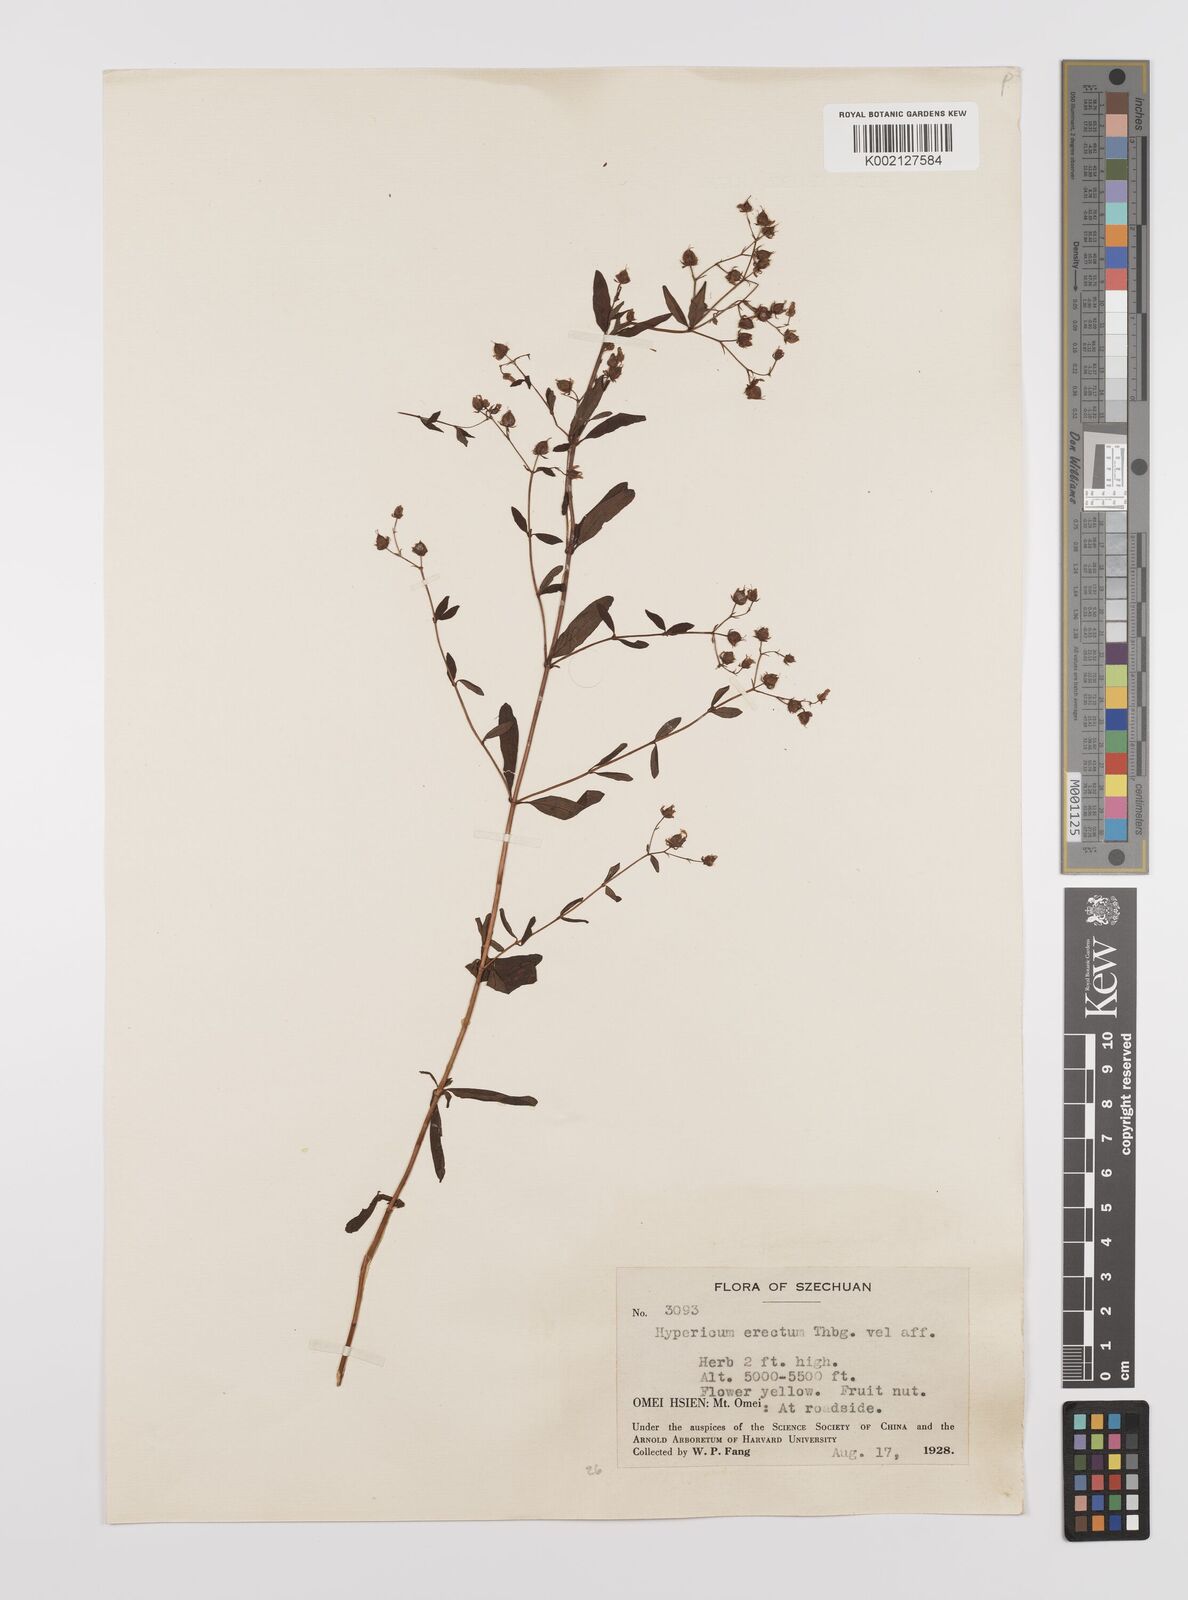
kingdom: Plantae
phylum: Tracheophyta
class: Magnoliopsida
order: Malpighiales
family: Hypericaceae
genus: Hypericum
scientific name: Hypericum petiolulatum
